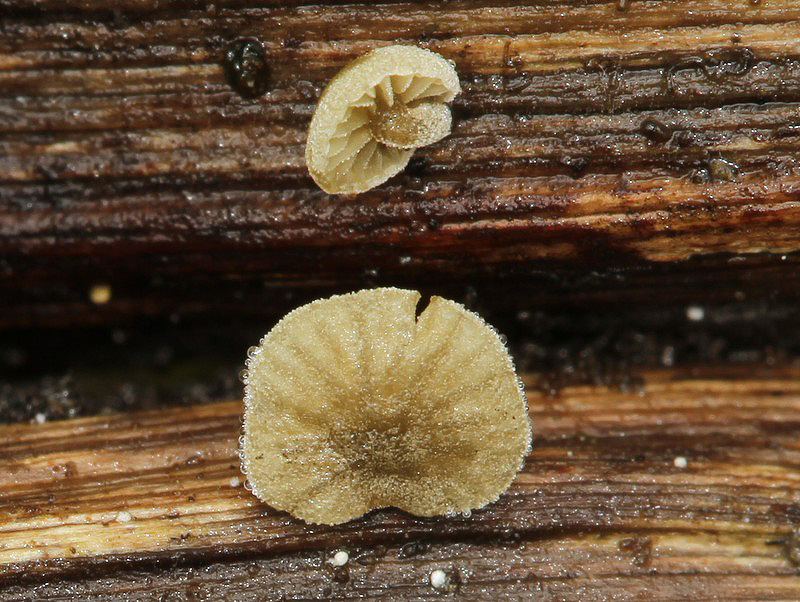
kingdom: Fungi
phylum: Basidiomycota
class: Agaricomycetes
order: Agaricales
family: Crepidotaceae
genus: Simocybe
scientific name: Simocybe haustellaris
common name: skæv skyggehat
